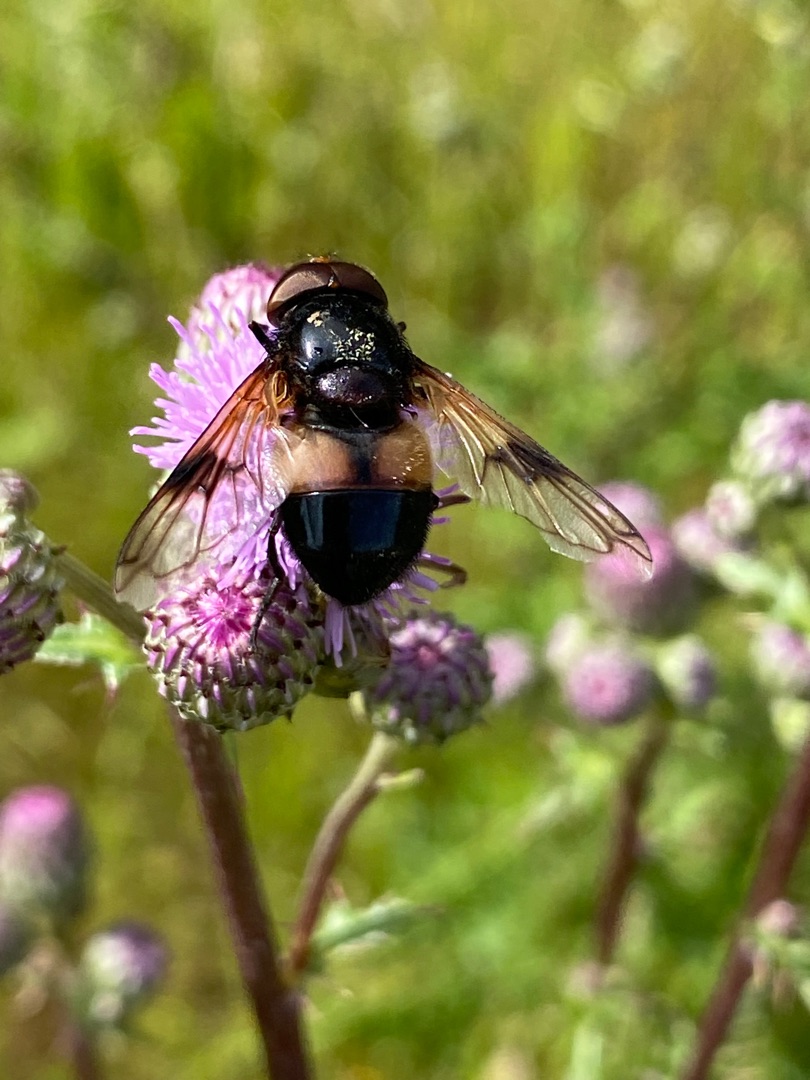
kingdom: Animalia
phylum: Arthropoda
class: Insecta
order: Diptera
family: Syrphidae
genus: Volucella
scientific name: Volucella pellucens
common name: Hvidbåndet humlesvirreflue
